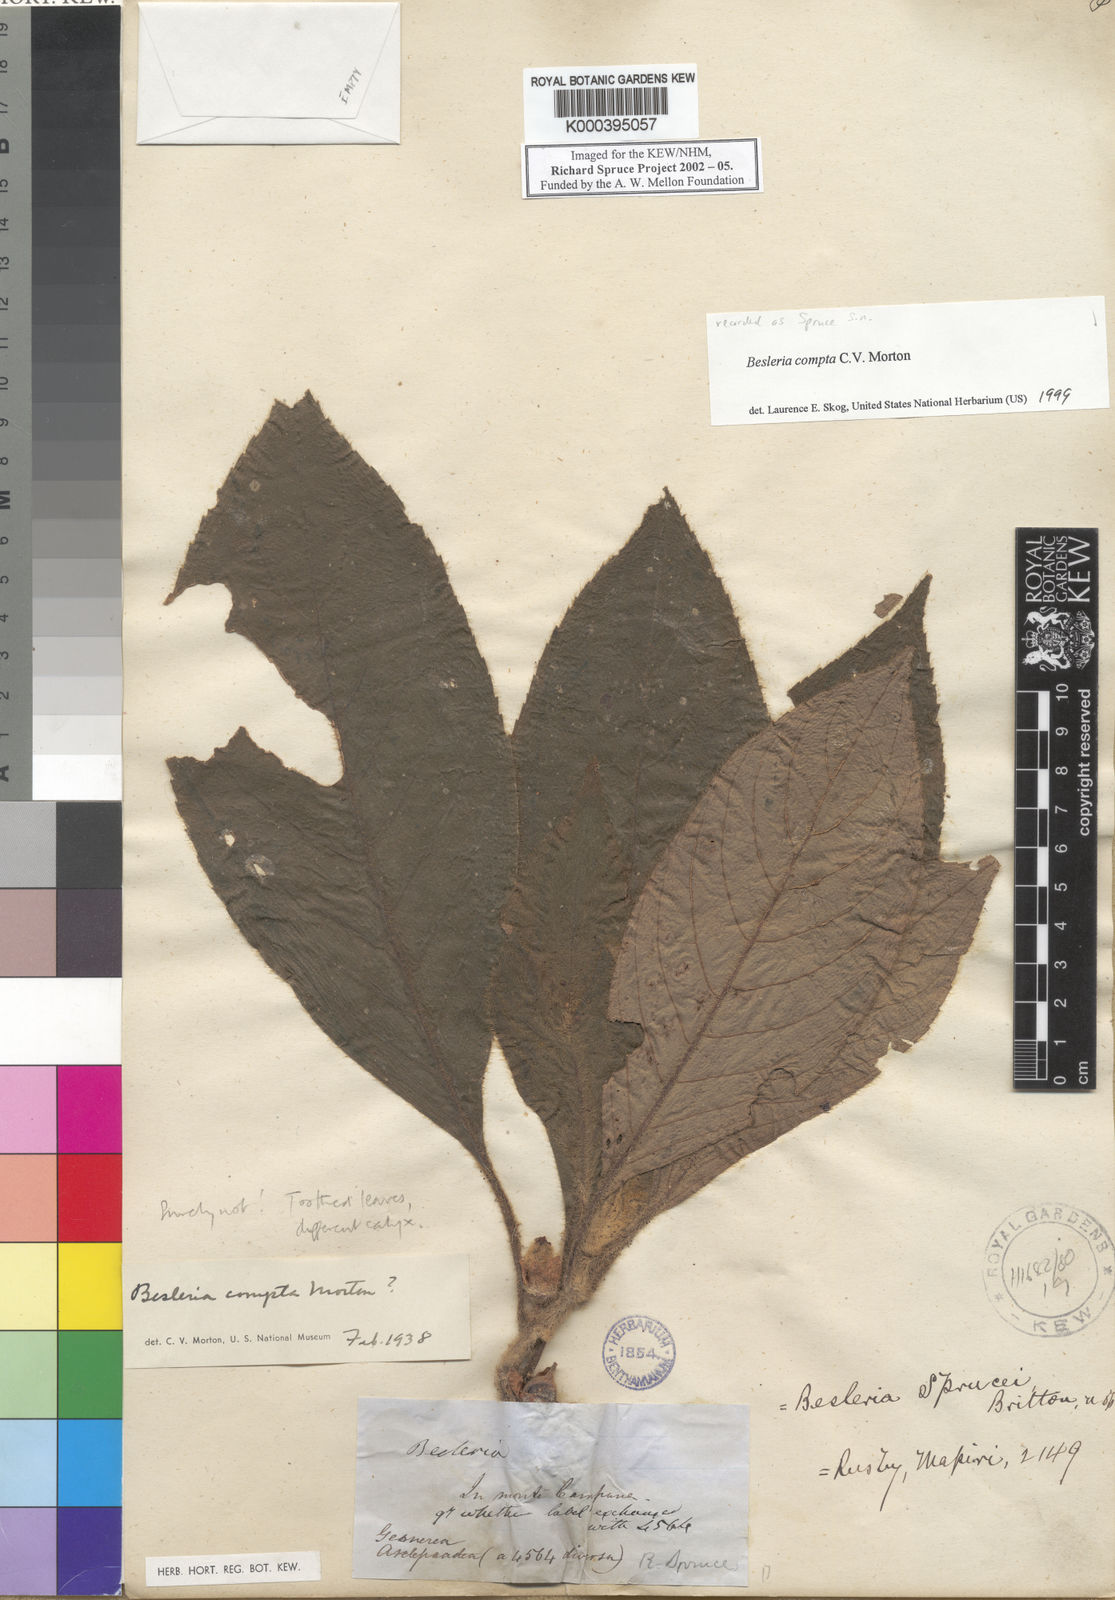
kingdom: Plantae
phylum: Tracheophyta
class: Magnoliopsida
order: Lamiales
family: Gesneriaceae
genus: Besleria
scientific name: Besleria compta
